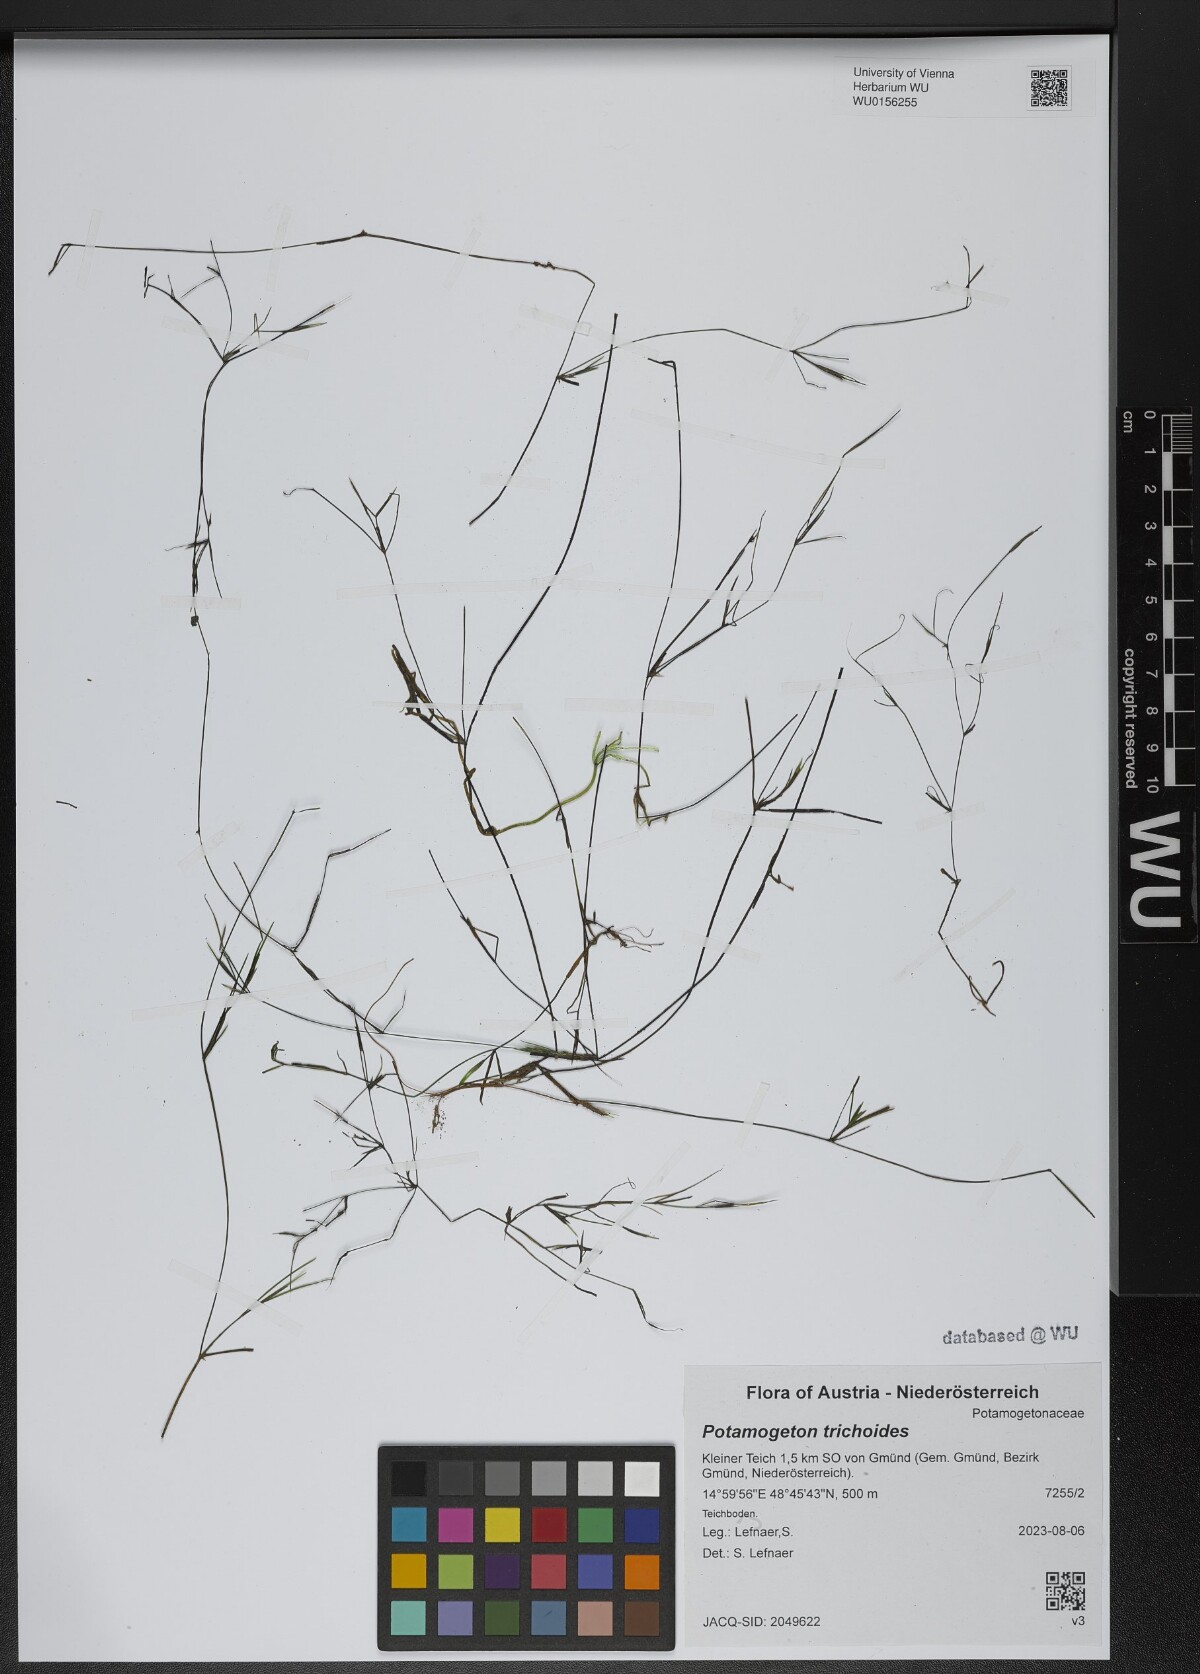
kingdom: Plantae
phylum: Tracheophyta
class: Liliopsida
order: Alismatales
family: Potamogetonaceae
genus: Potamogeton
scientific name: Potamogeton trichoides
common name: Hairlike pondweed
